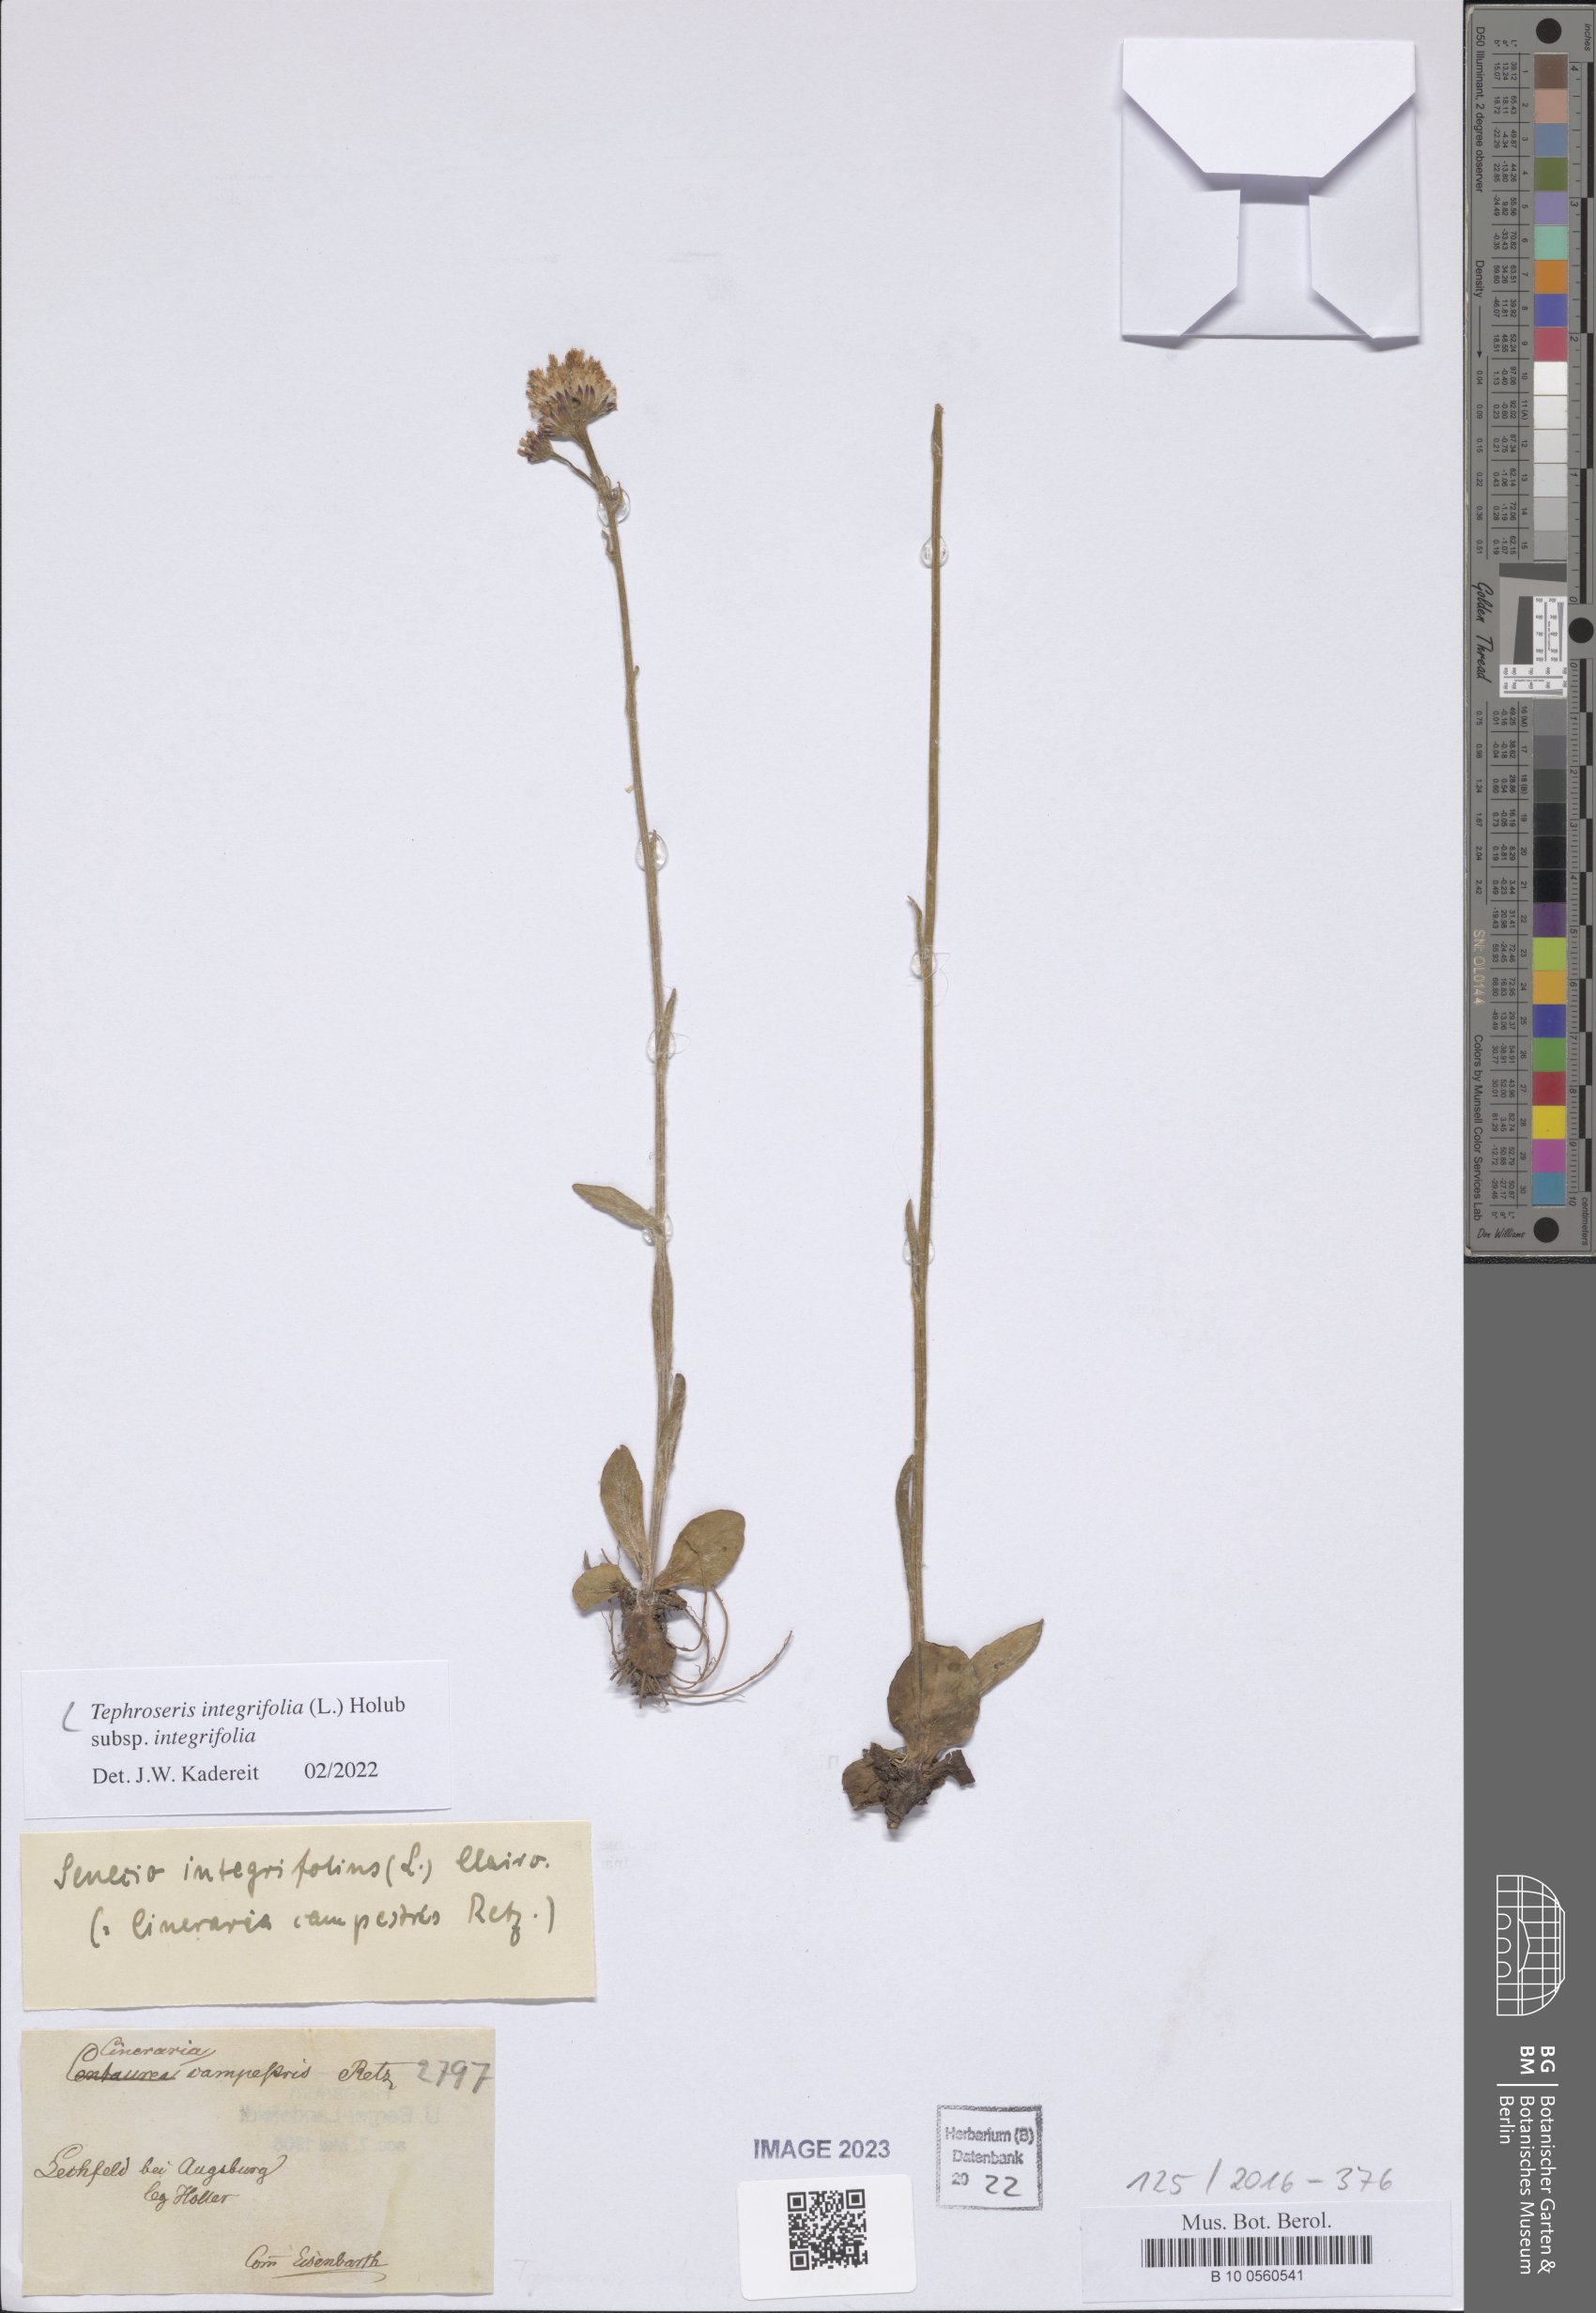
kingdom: Plantae
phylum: Tracheophyta
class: Magnoliopsida
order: Asterales
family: Asteraceae
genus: Tephroseris
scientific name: Tephroseris integrifolia
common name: Field fleawort
